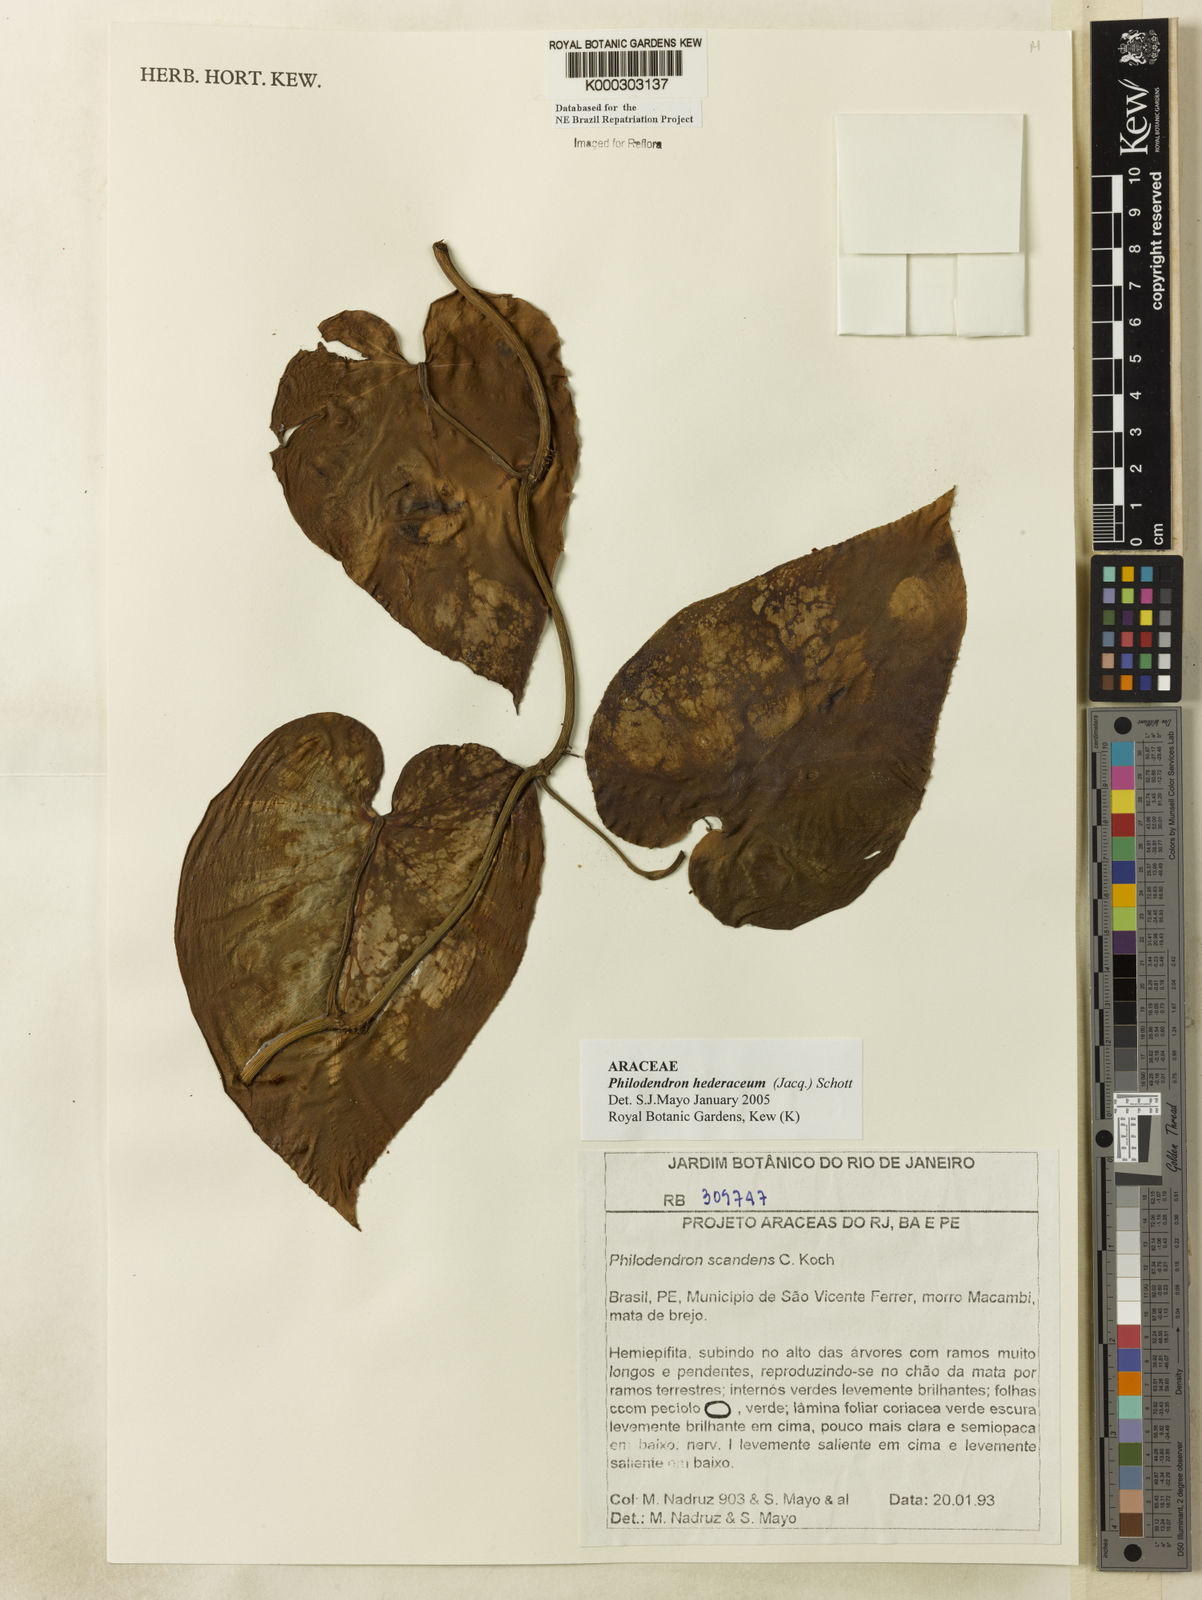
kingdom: Plantae
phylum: Tracheophyta
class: Liliopsida
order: Alismatales
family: Araceae
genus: Philodendron
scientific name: Philodendron hederaceum
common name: Vilevine
